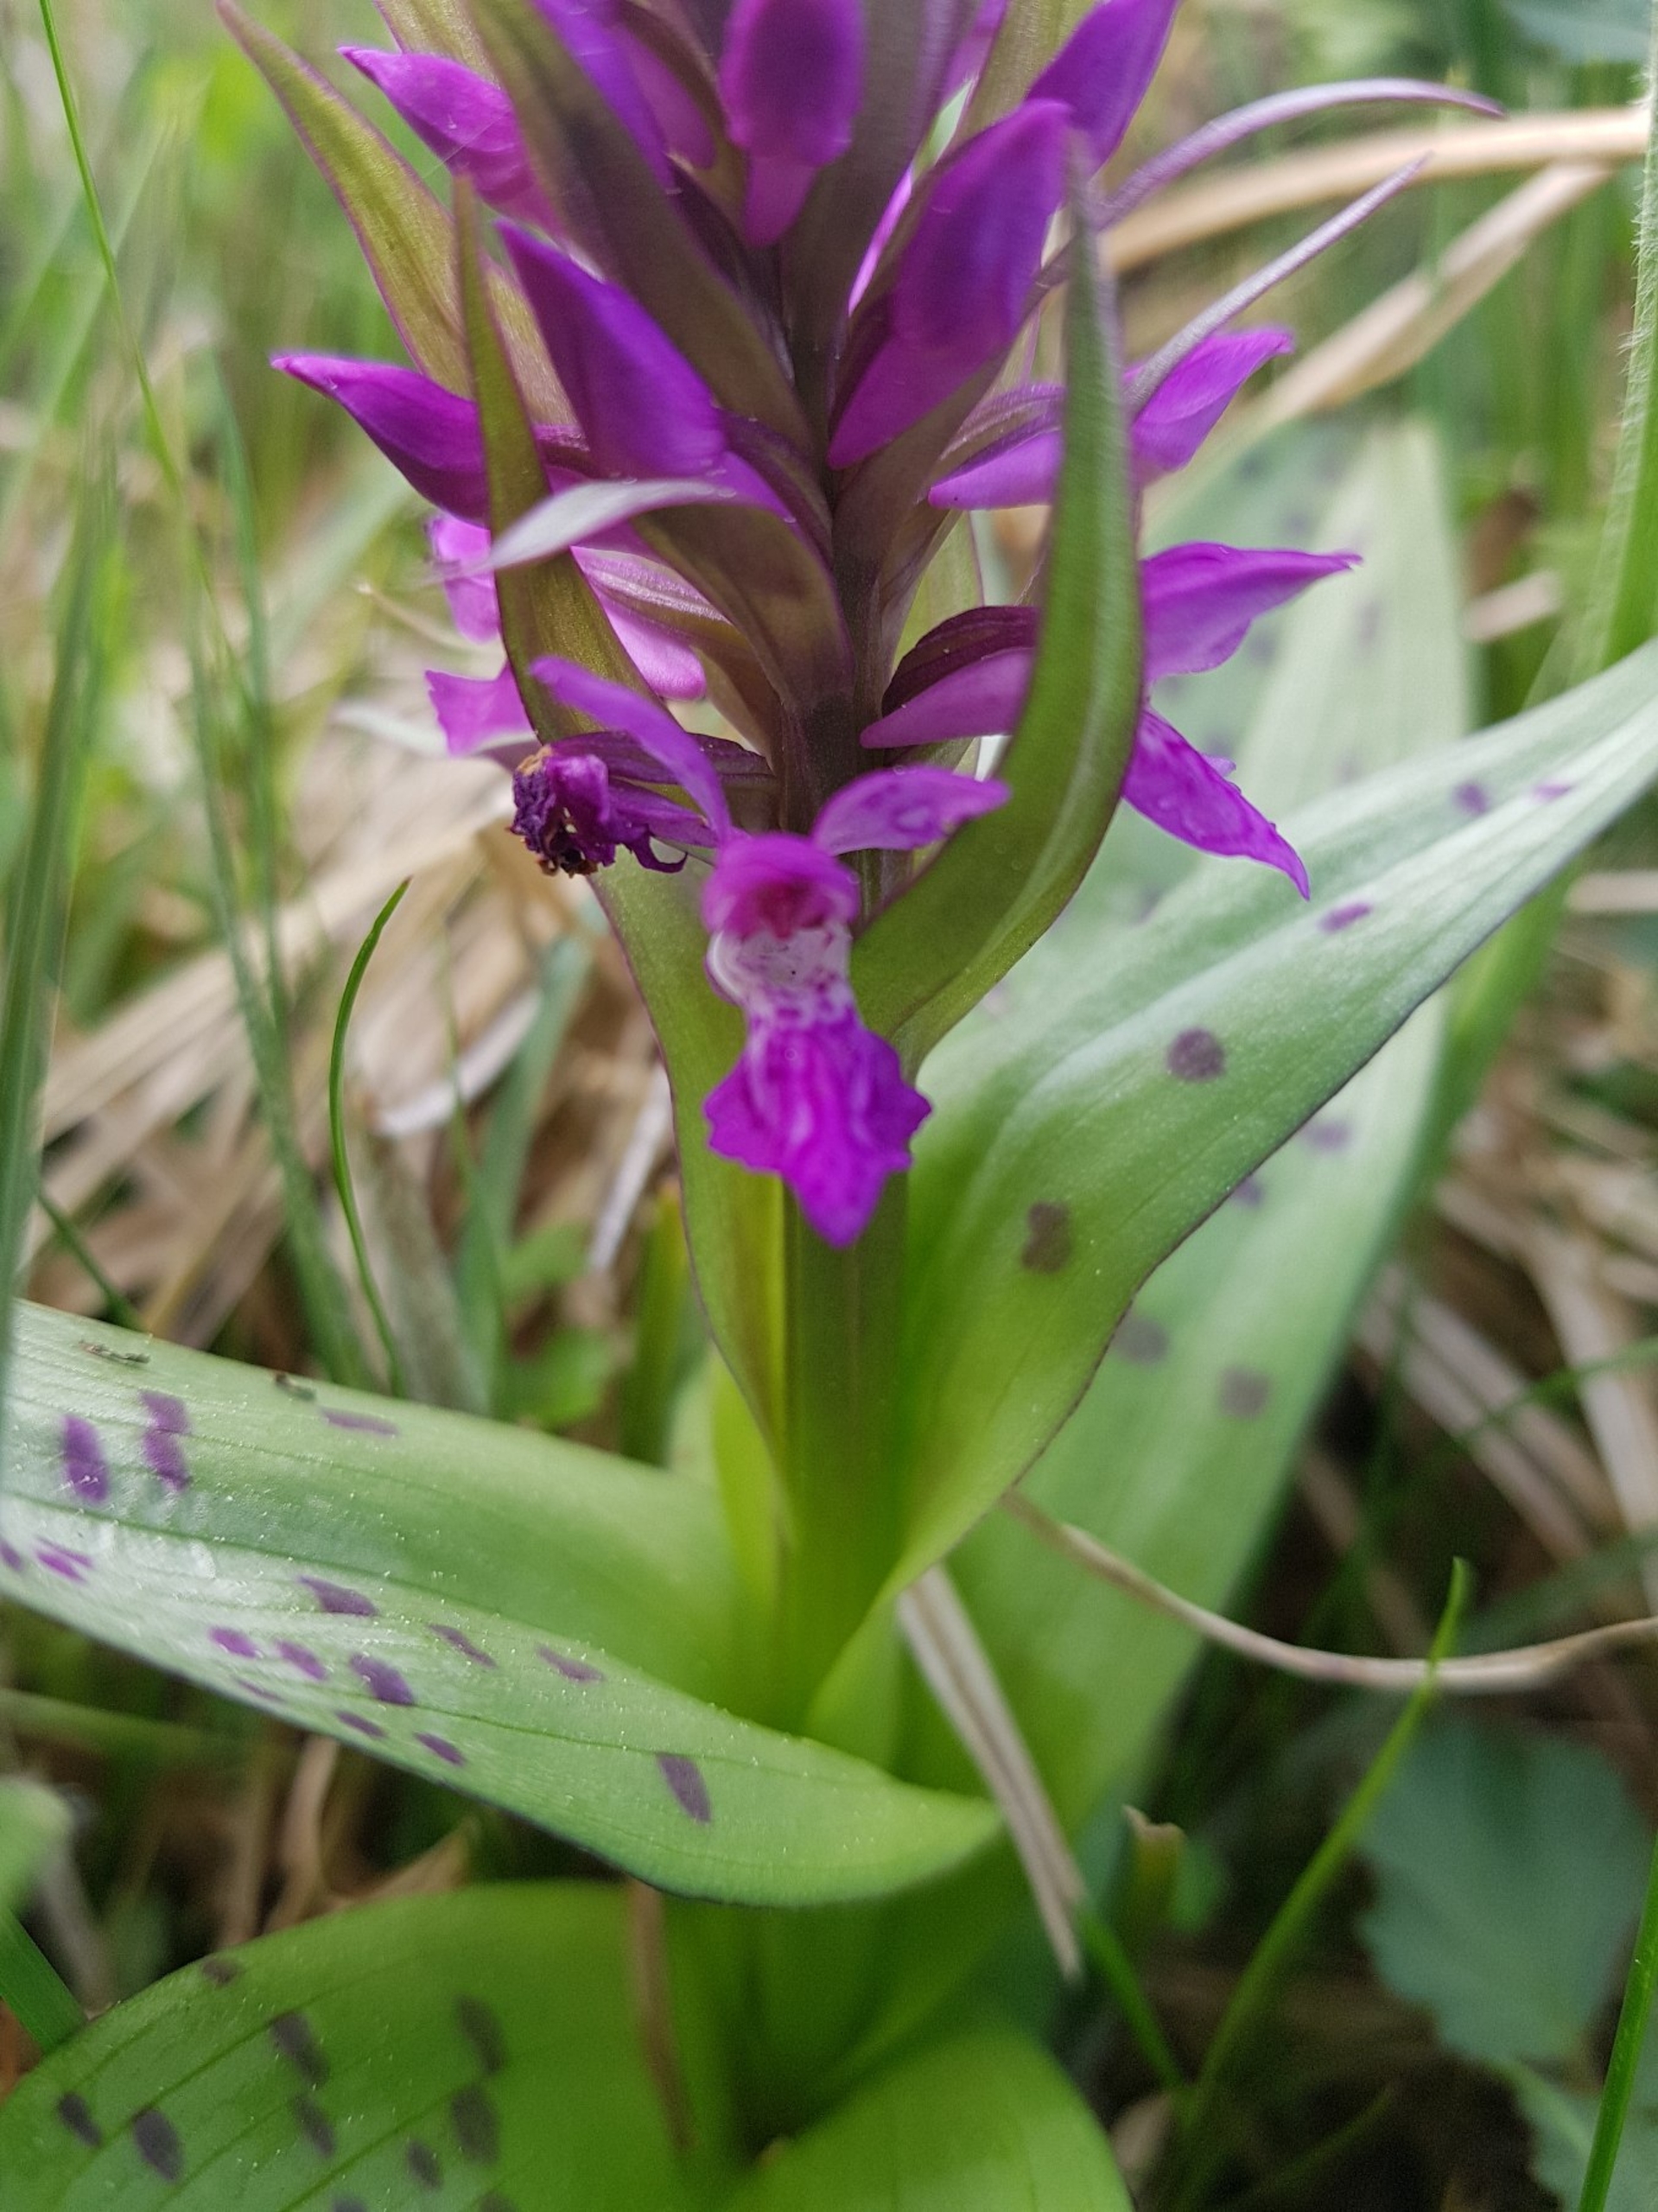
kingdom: Plantae
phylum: Tracheophyta
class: Liliopsida
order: Asparagales
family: Orchidaceae
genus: Dactylorhiza
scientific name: Dactylorhiza majalis
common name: Maj-gøgeurt
